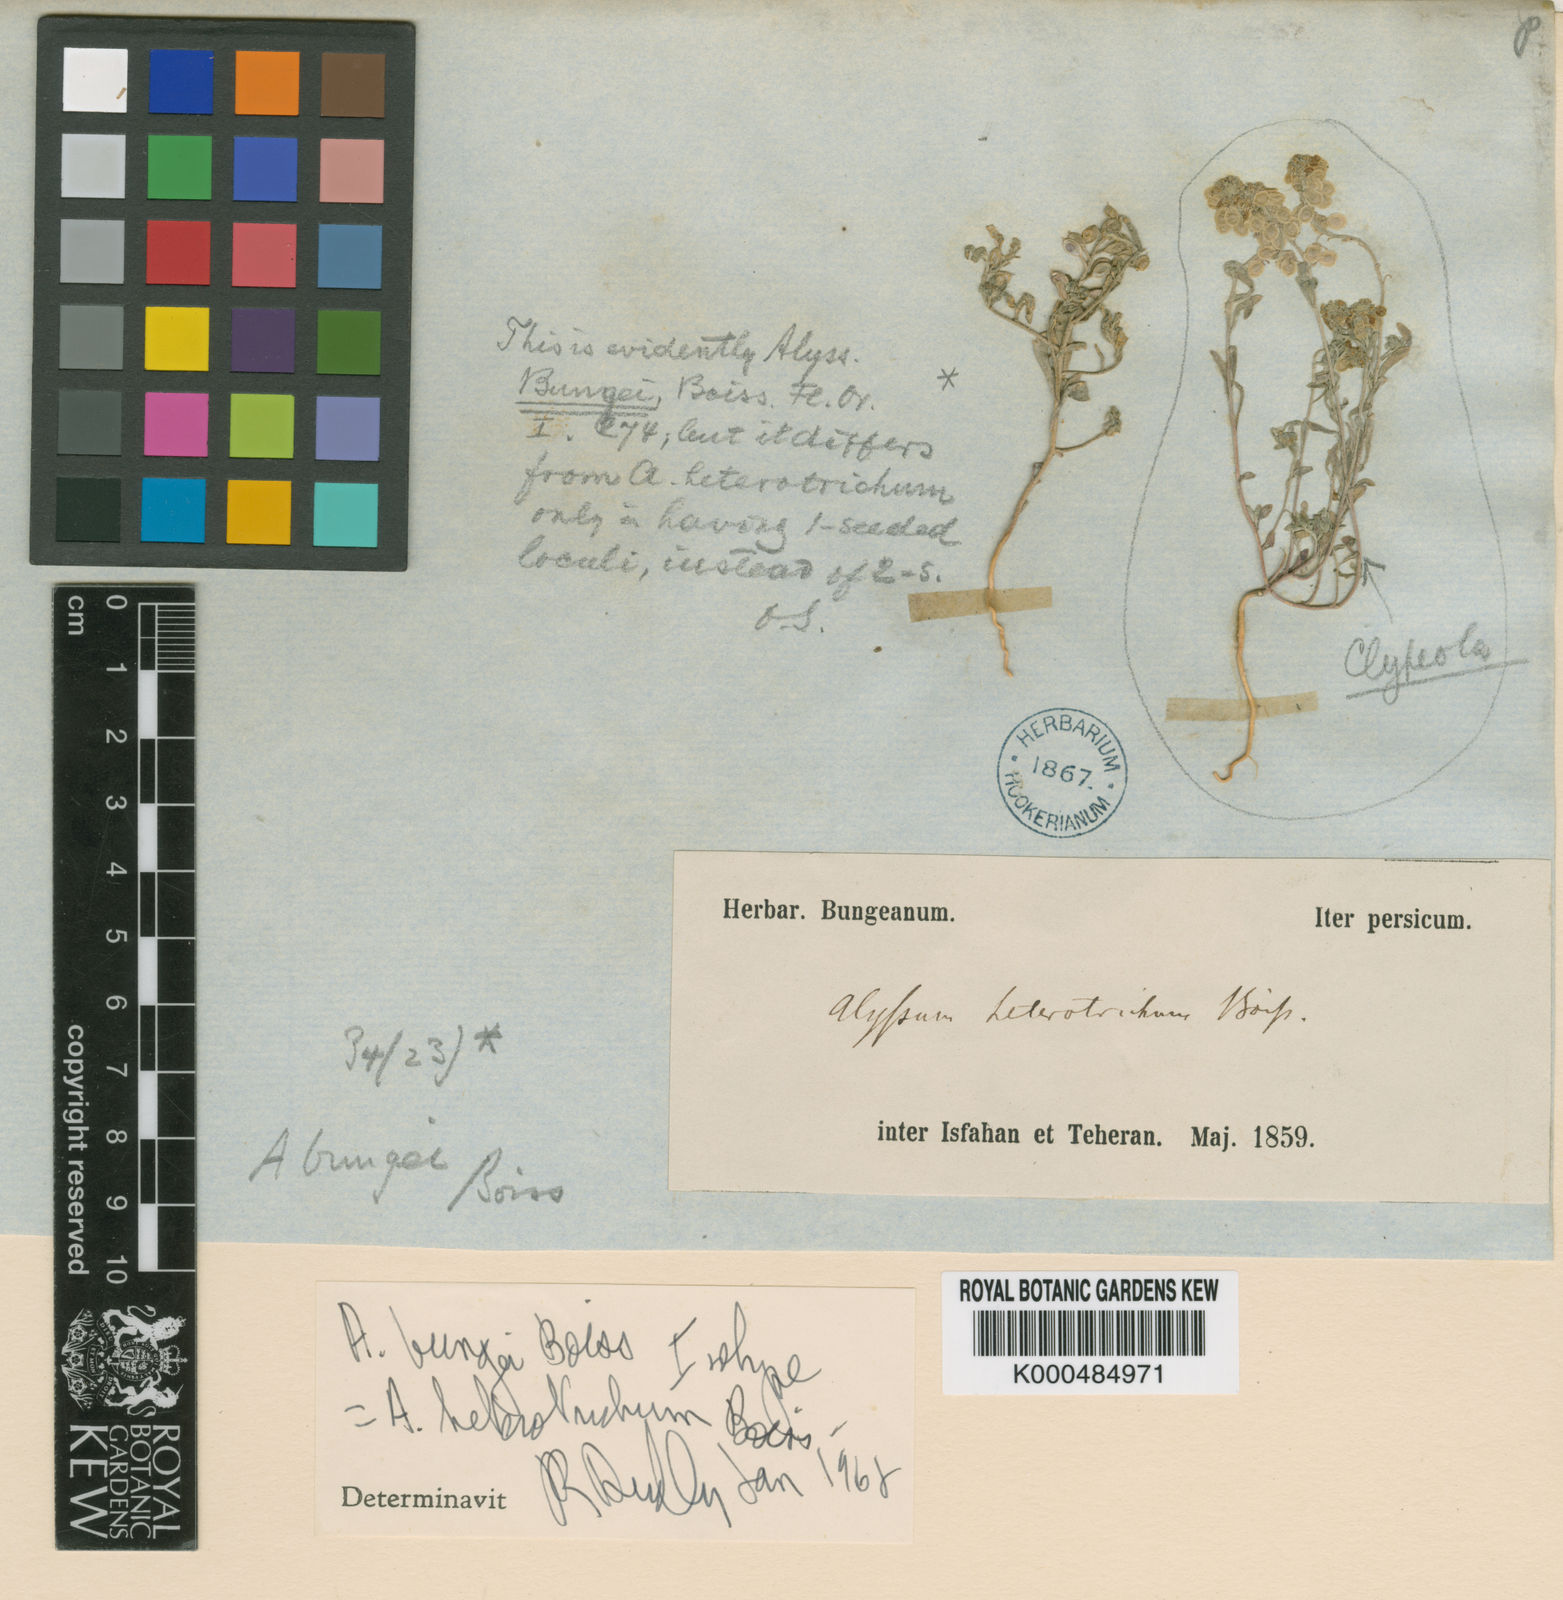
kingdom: Plantae
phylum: Tracheophyta
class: Magnoliopsida
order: Brassicales
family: Brassicaceae
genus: Meniocus
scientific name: Meniocus
